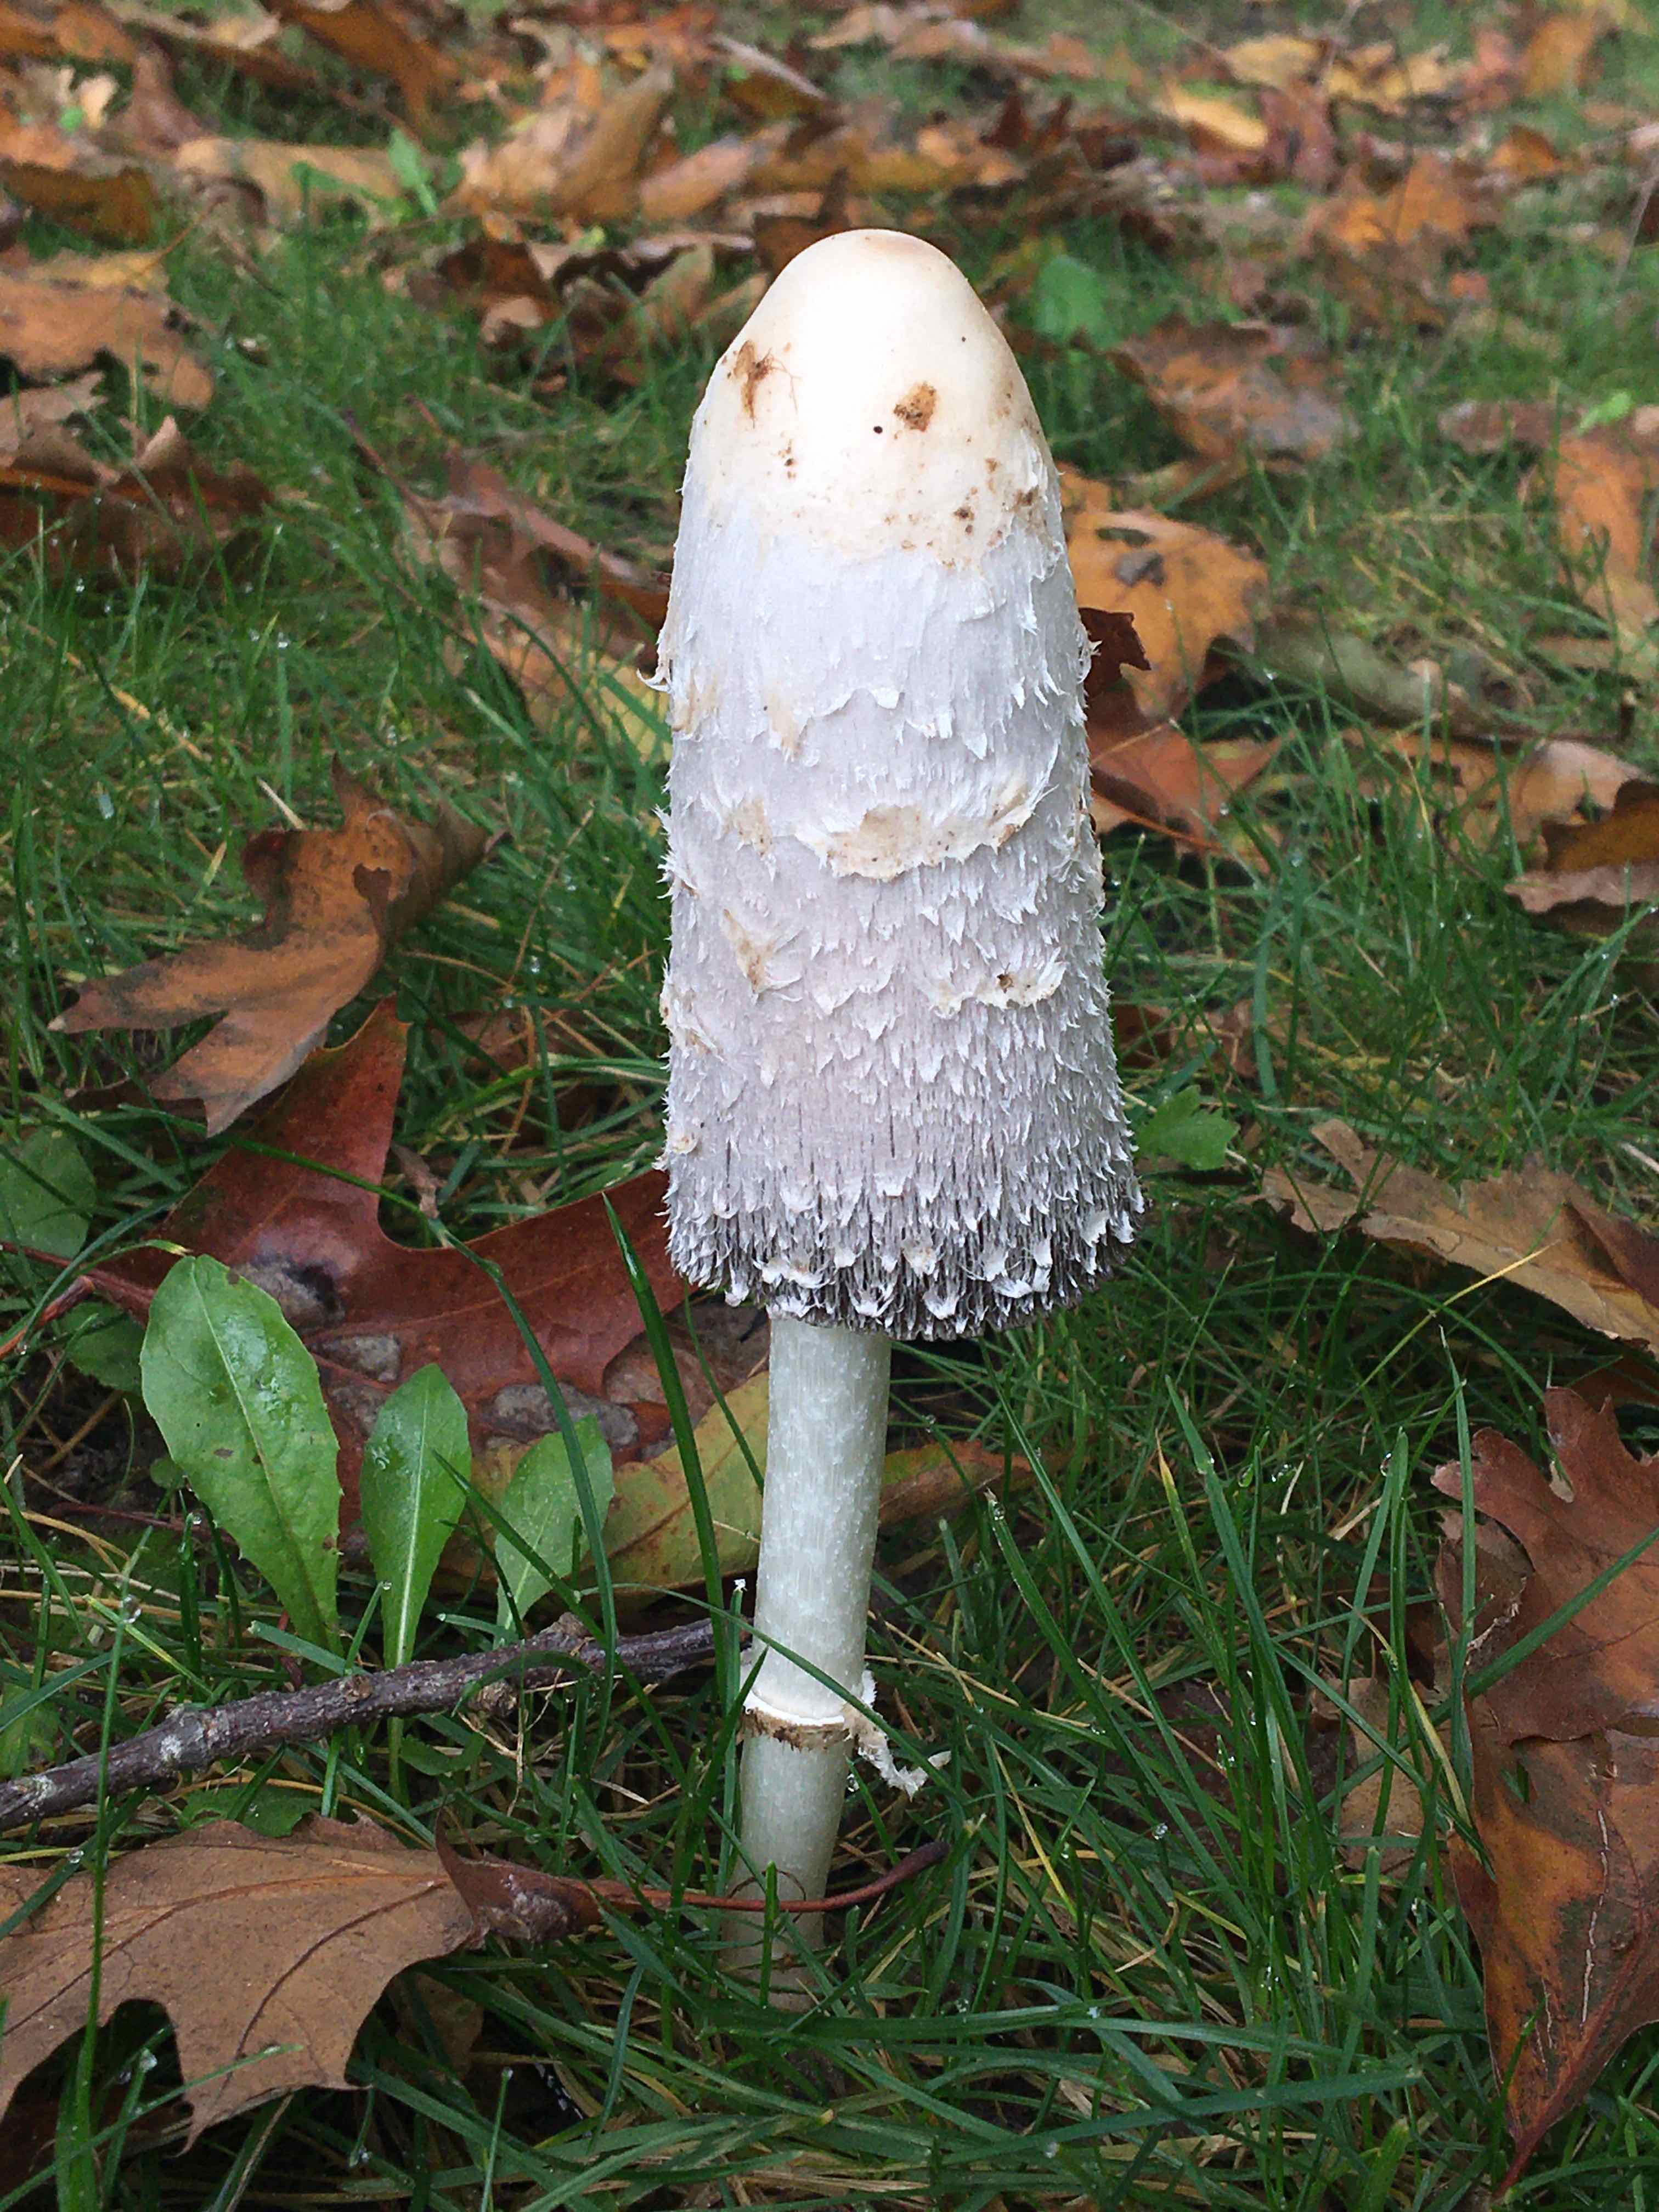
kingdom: Fungi
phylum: Basidiomycota
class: Agaricomycetes
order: Agaricales
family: Agaricaceae
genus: Coprinus
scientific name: Coprinus comatus
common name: stor parykhat
